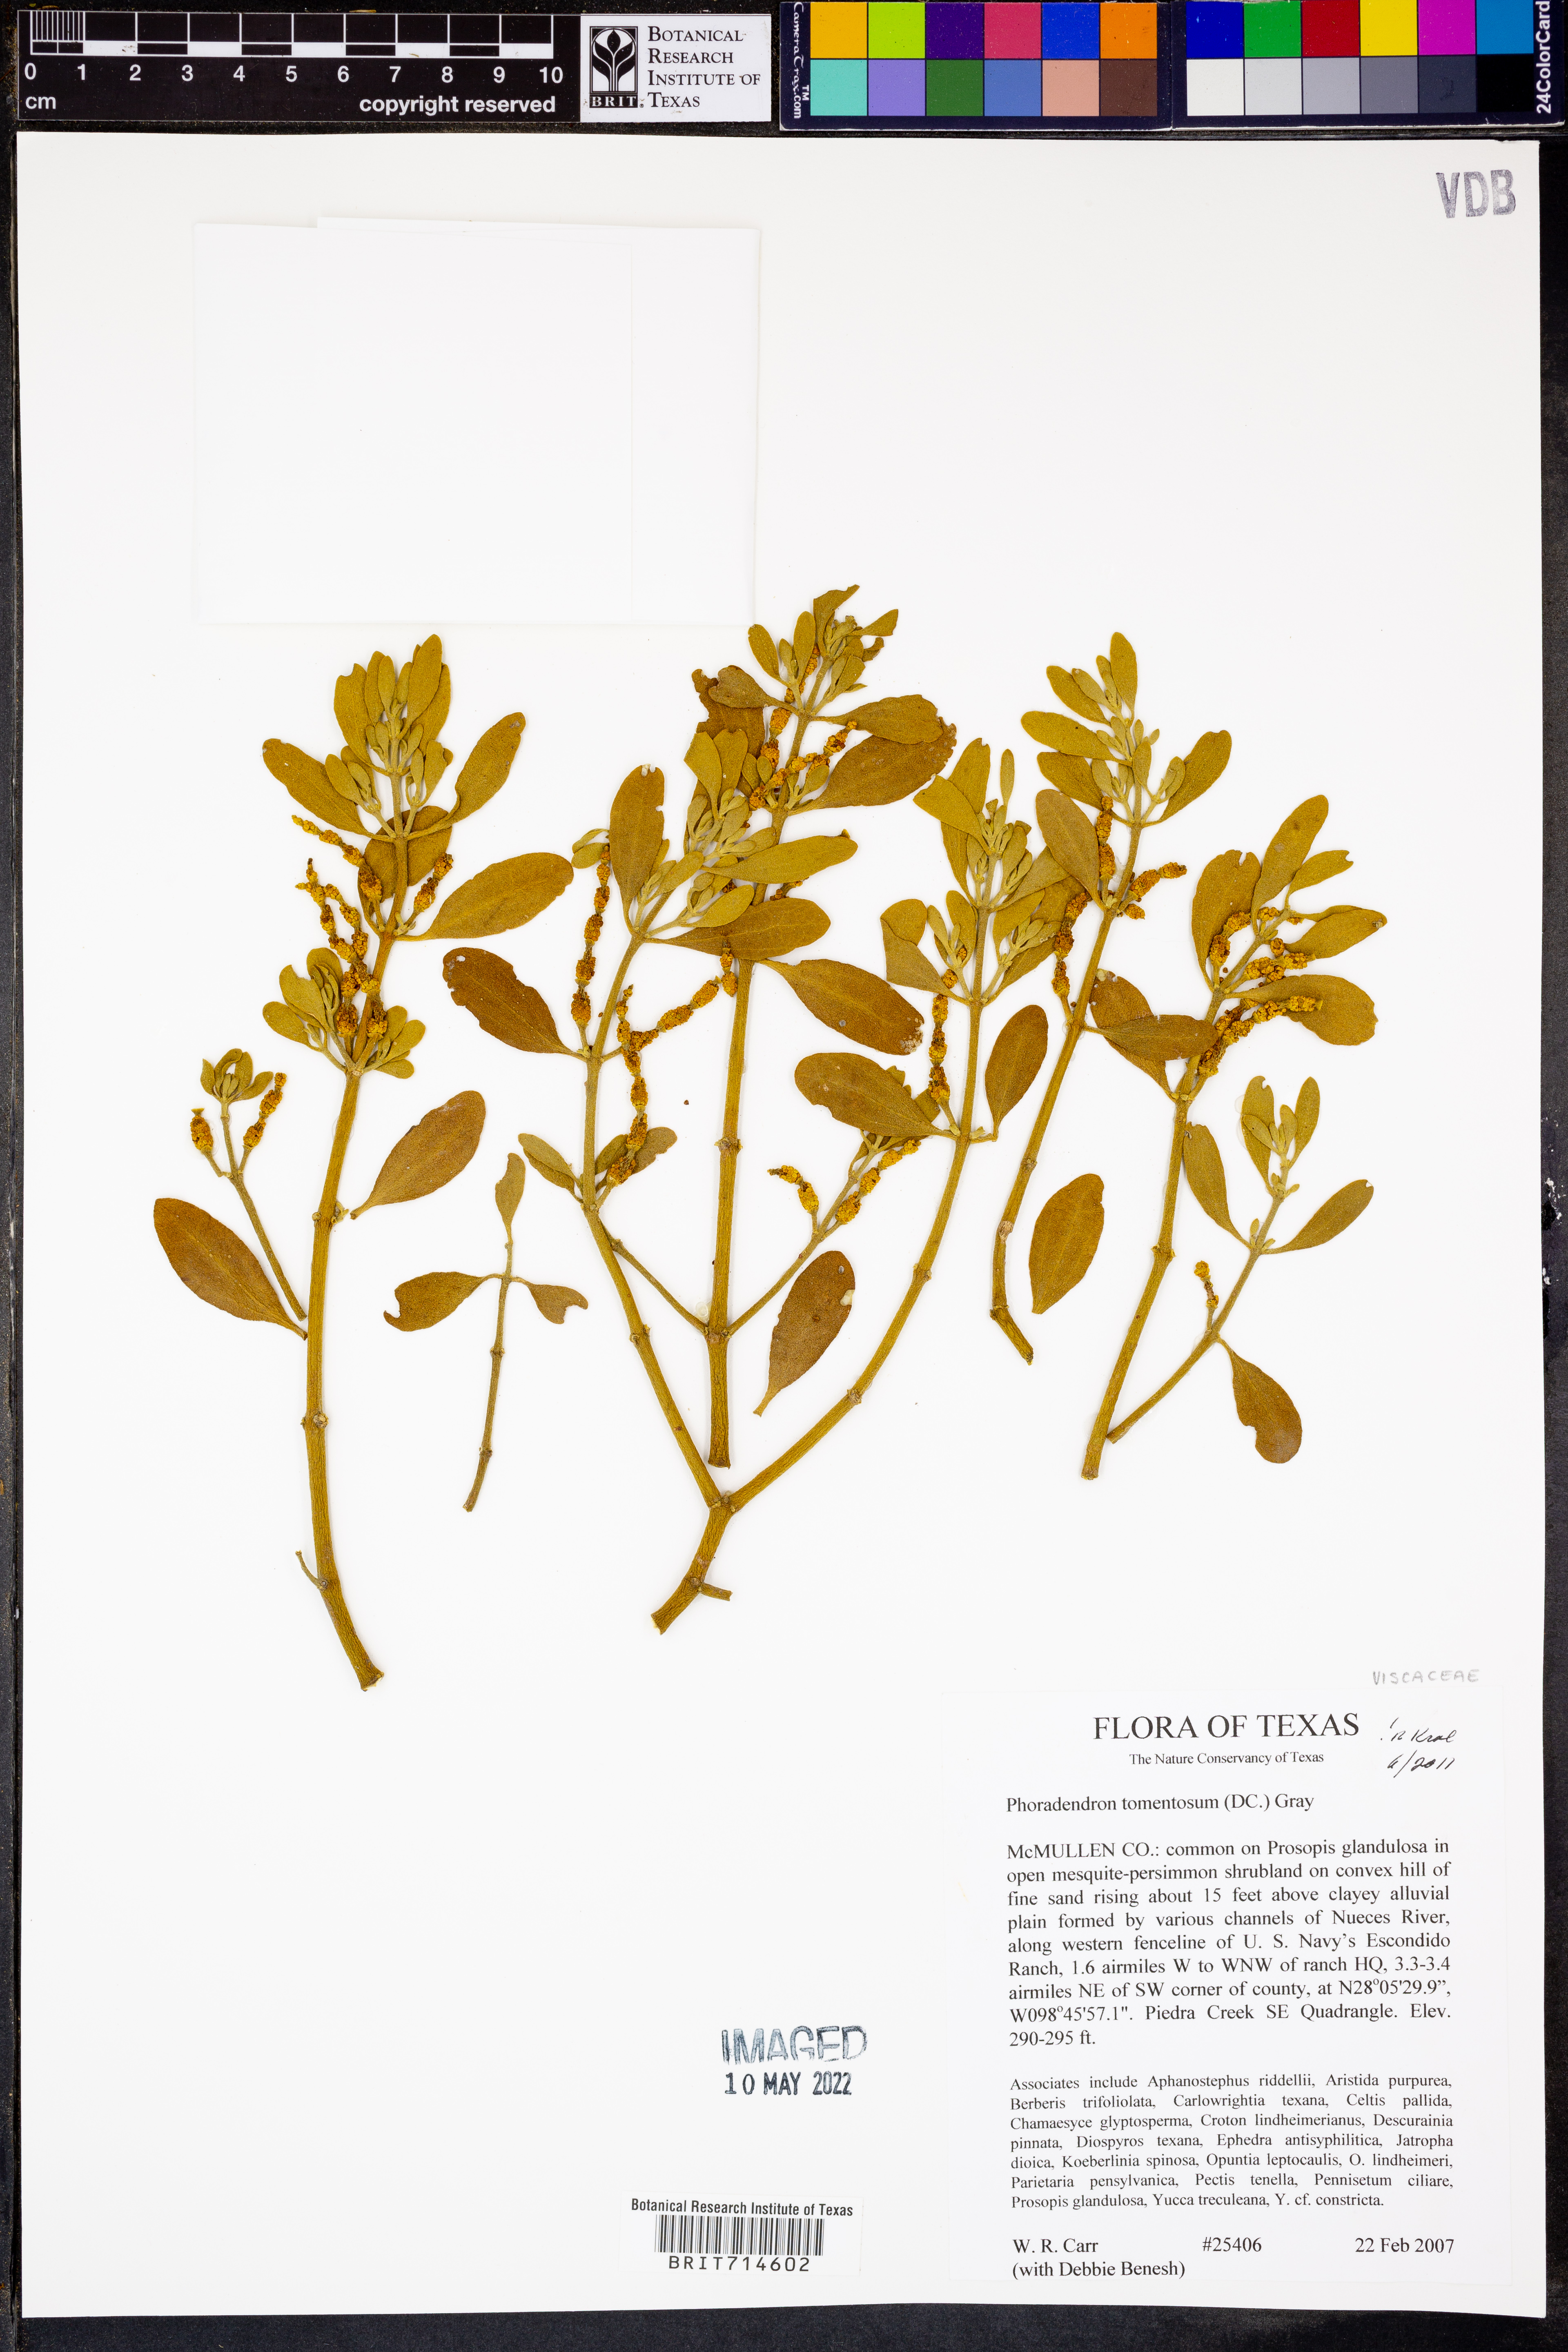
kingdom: Plantae
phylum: Tracheophyta
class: Magnoliopsida
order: Santalales
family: Viscaceae
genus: Phoradendron
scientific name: Phoradendron leucarpum
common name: Pacific mistletoe
